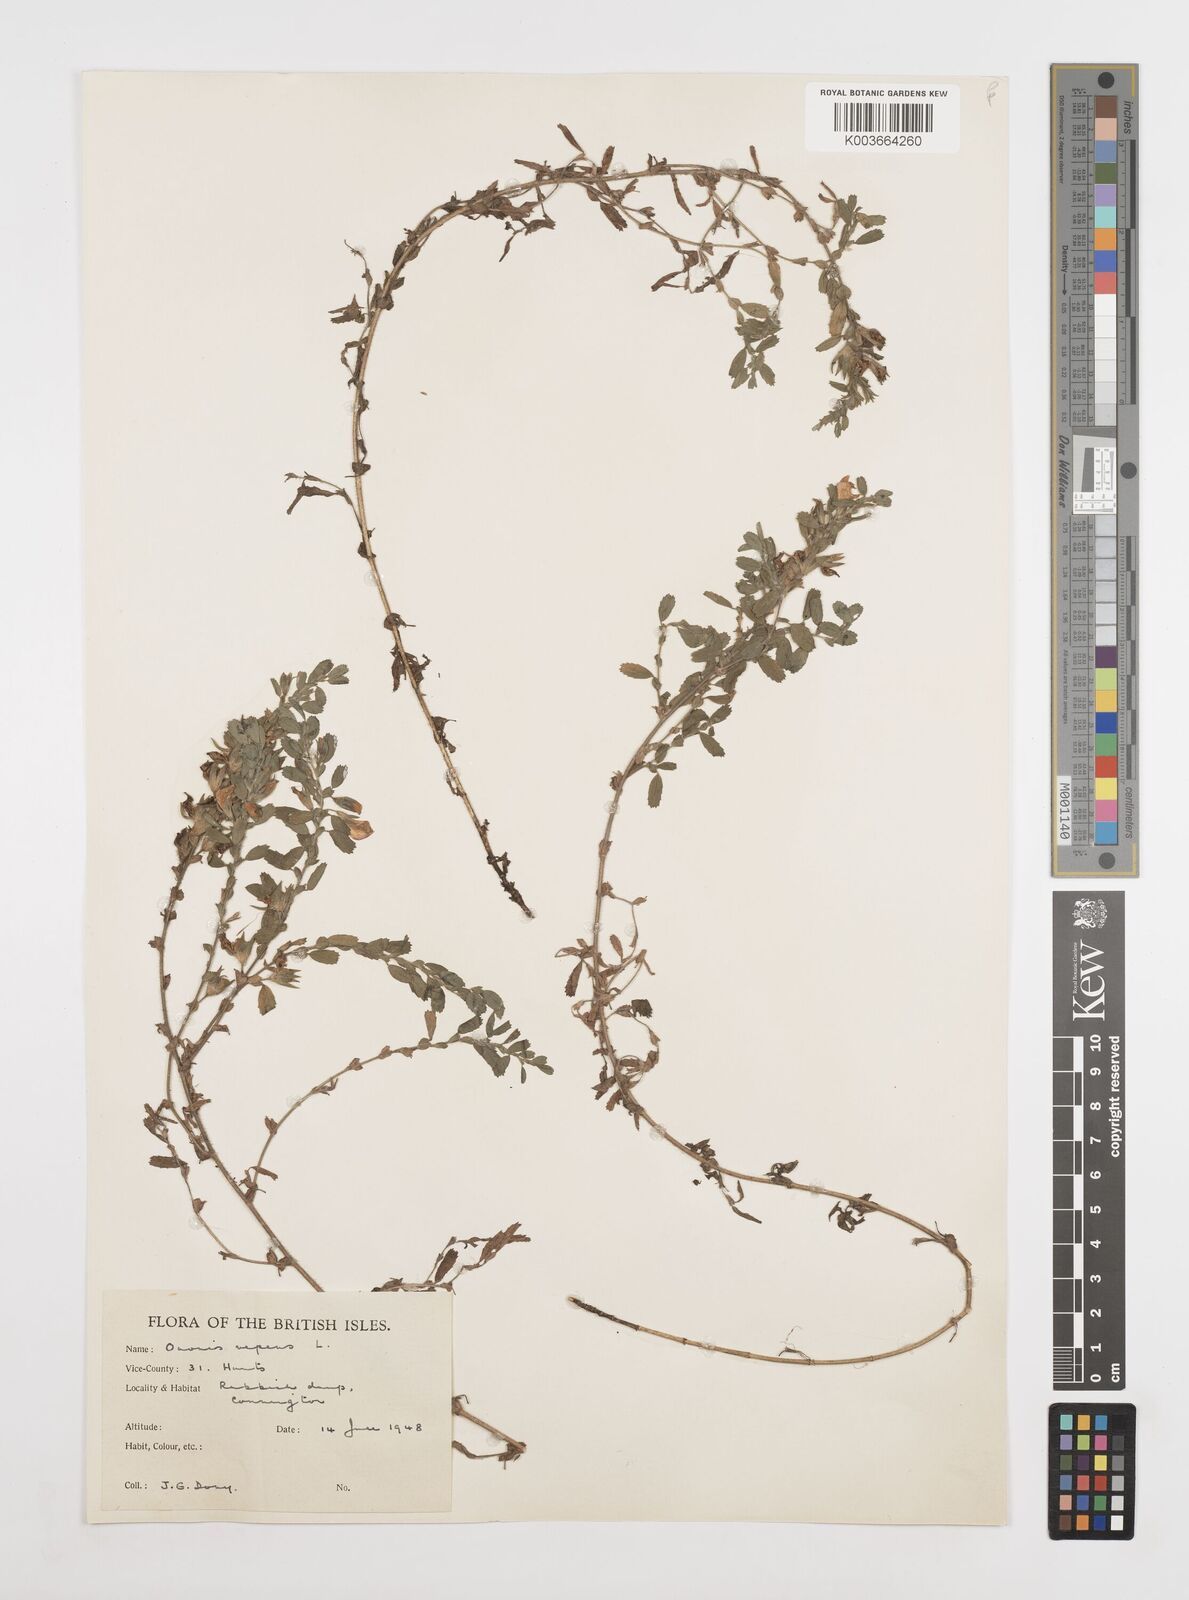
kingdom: Plantae
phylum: Tracheophyta
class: Magnoliopsida
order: Fabales
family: Fabaceae
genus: Ononis
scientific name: Ononis spinosa
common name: Spiny restharrow
